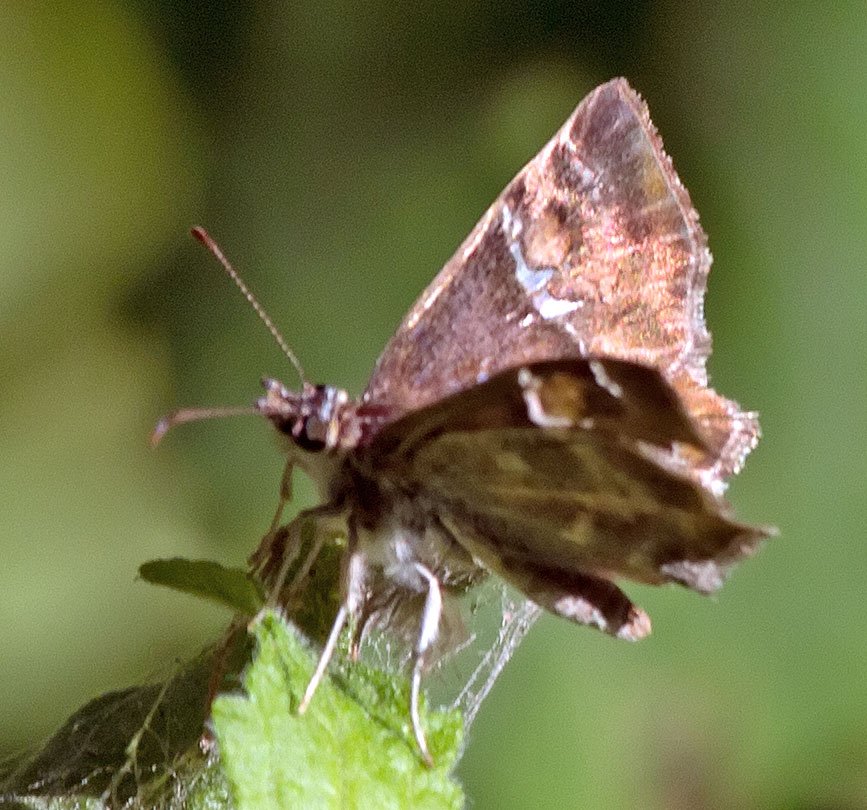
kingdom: Animalia
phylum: Arthropoda
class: Insecta
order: Lepidoptera
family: Hesperiidae
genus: Systasea
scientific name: Systasea pulverulenta
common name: Texas Powdered-Skipper
